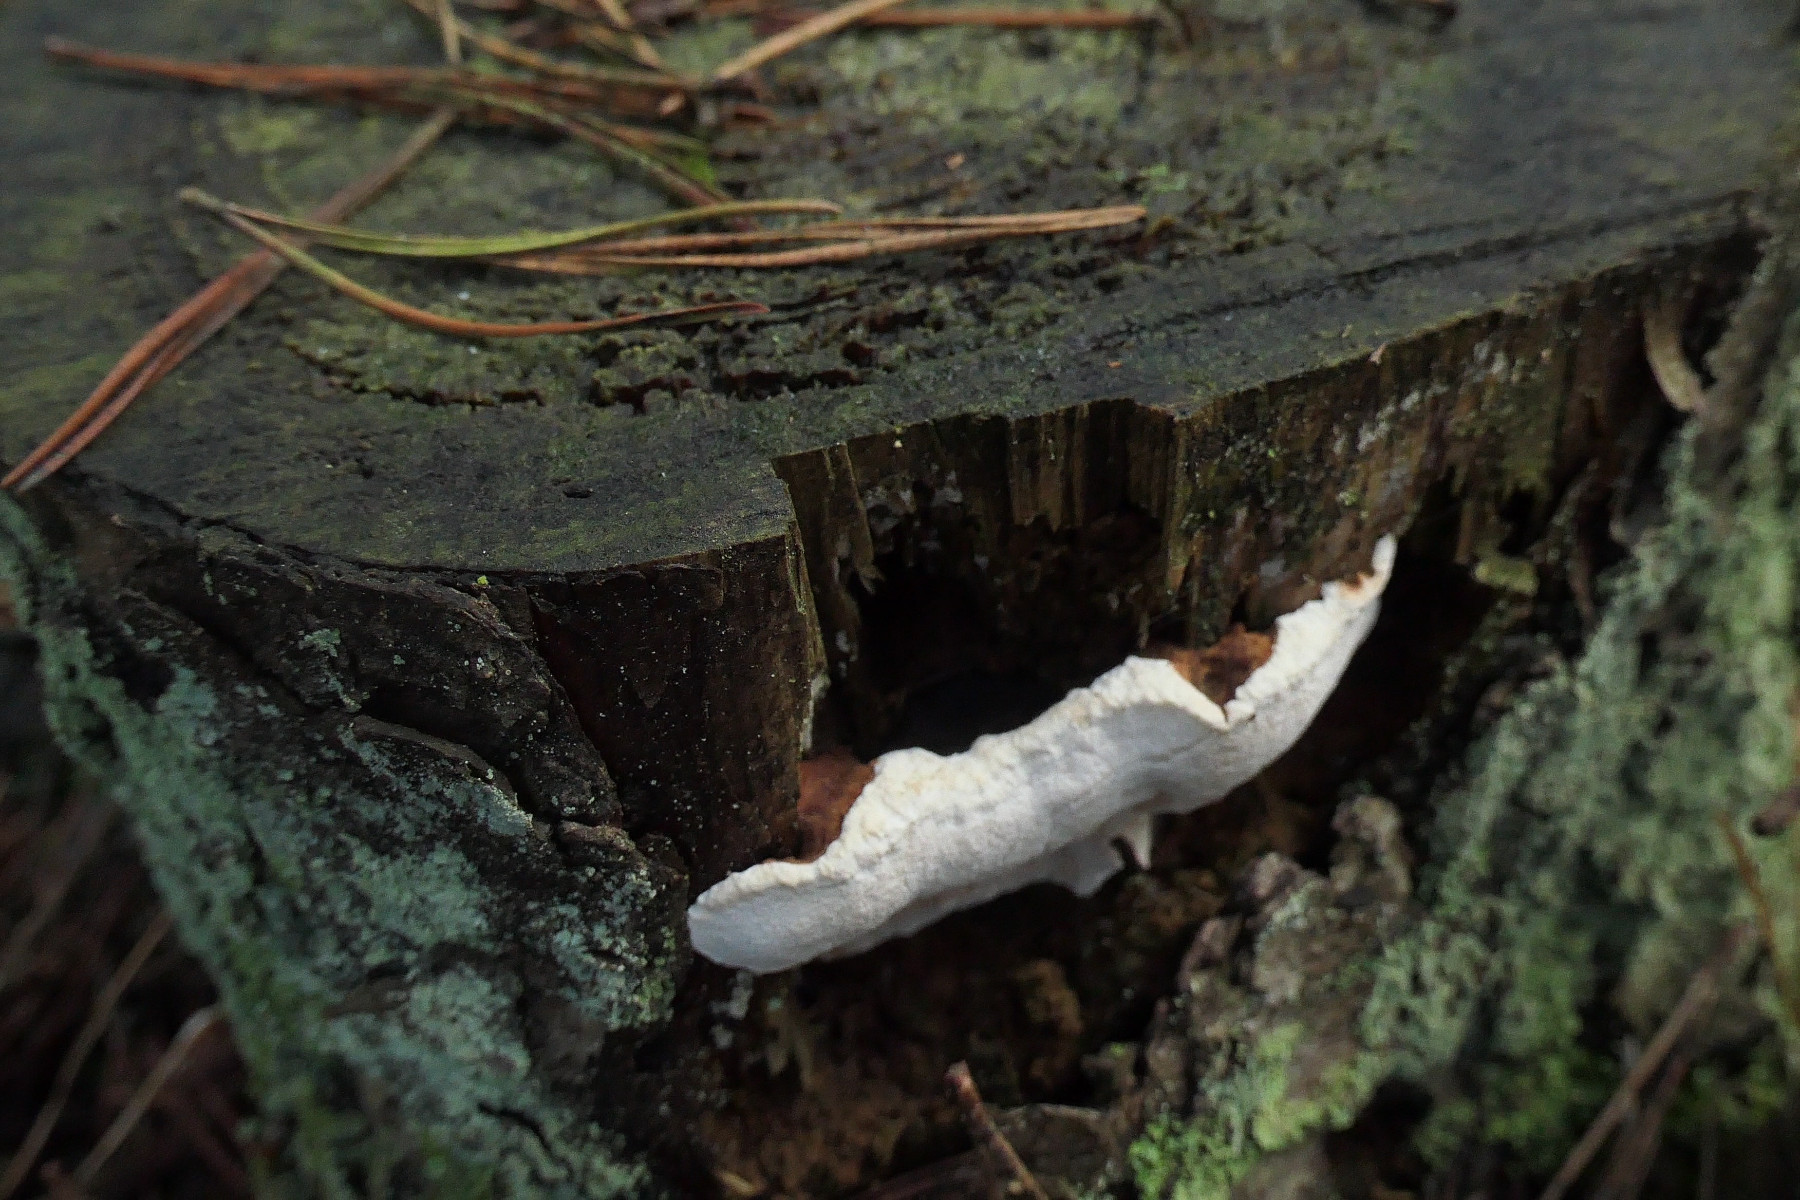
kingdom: Fungi
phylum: Basidiomycota
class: Agaricomycetes
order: Russulales
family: Bondarzewiaceae
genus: Heterobasidion
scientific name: Heterobasidion annosum
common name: almindelig rodfordærver
